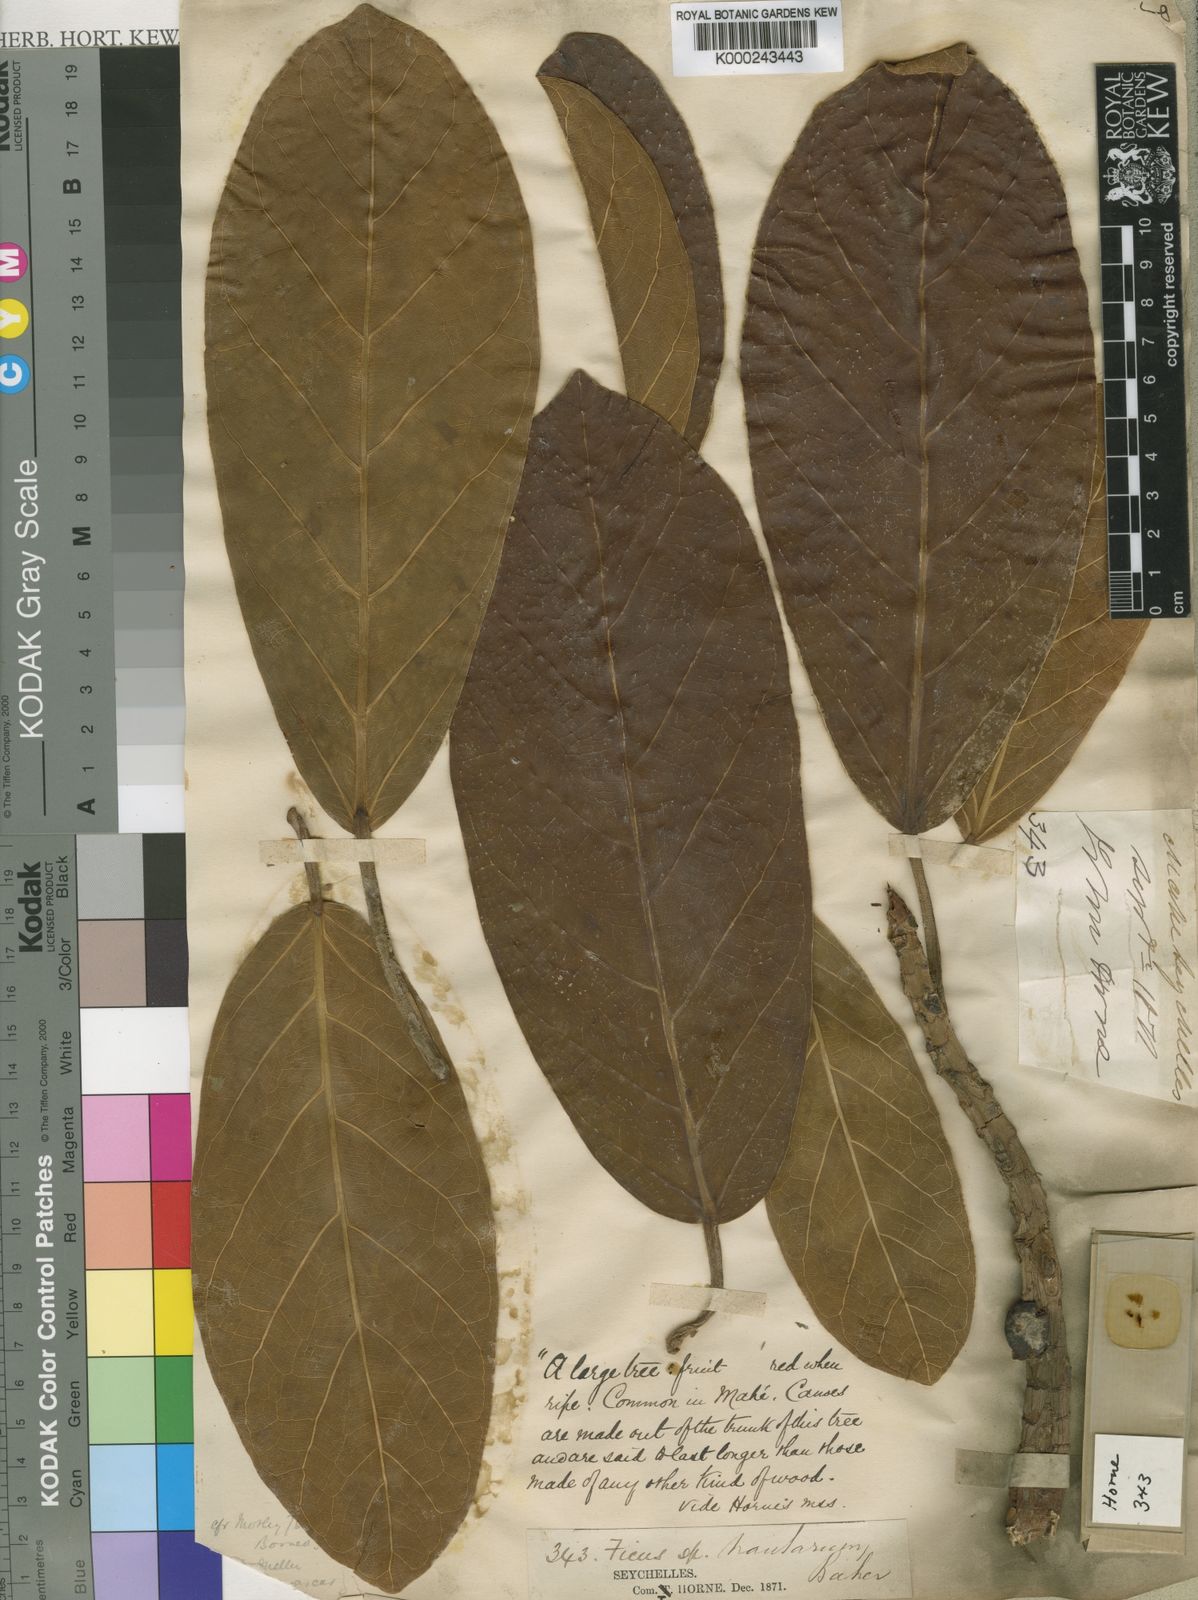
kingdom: Plantae
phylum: Tracheophyta
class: Magnoliopsida
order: Rosales
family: Moraceae
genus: Ficus
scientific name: Ficus lutea
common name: Giant-leaved fig
